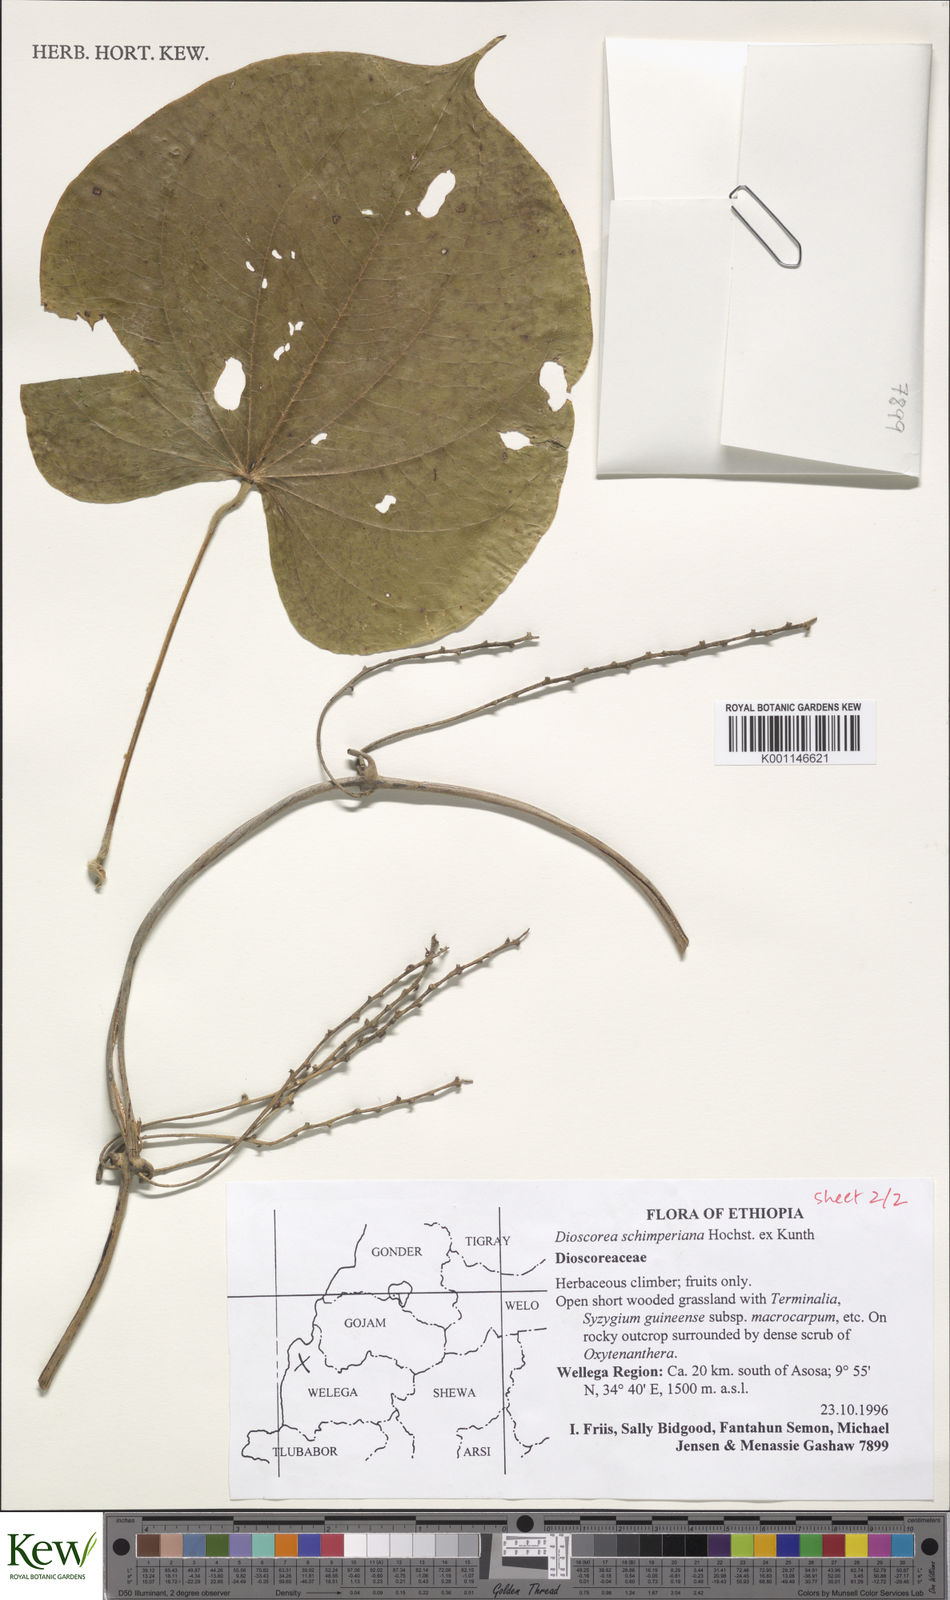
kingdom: Plantae
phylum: Tracheophyta
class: Liliopsida
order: Dioscoreales
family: Dioscoreaceae
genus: Dioscorea
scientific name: Dioscorea schimperiana
